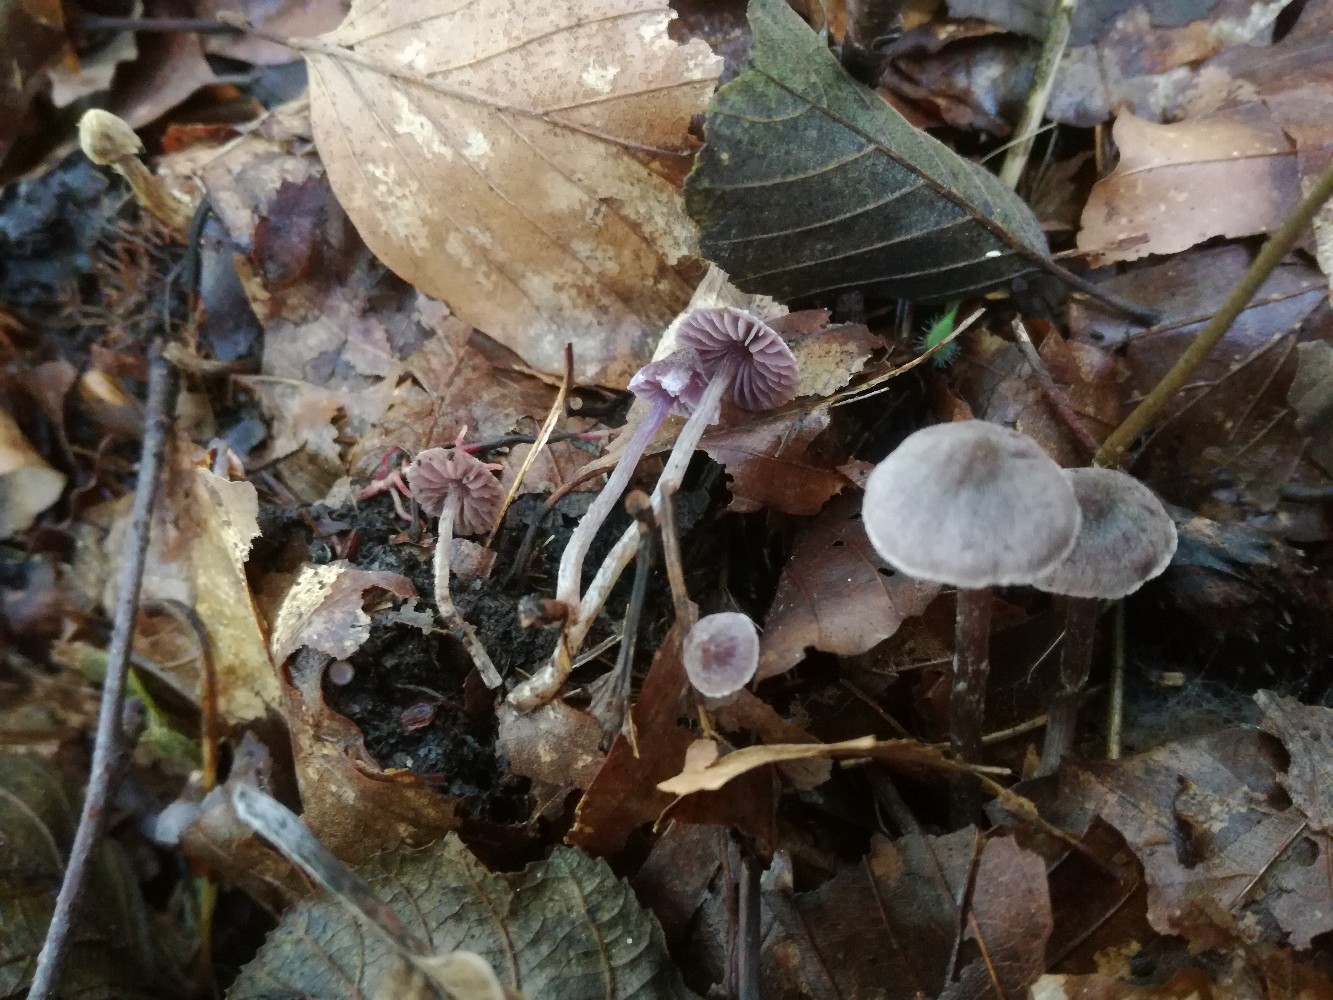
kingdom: Fungi
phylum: Basidiomycota
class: Agaricomycetes
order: Agaricales
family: Cortinariaceae
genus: Cortinarius
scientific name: Cortinarius bibulus
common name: smuk slørhat
